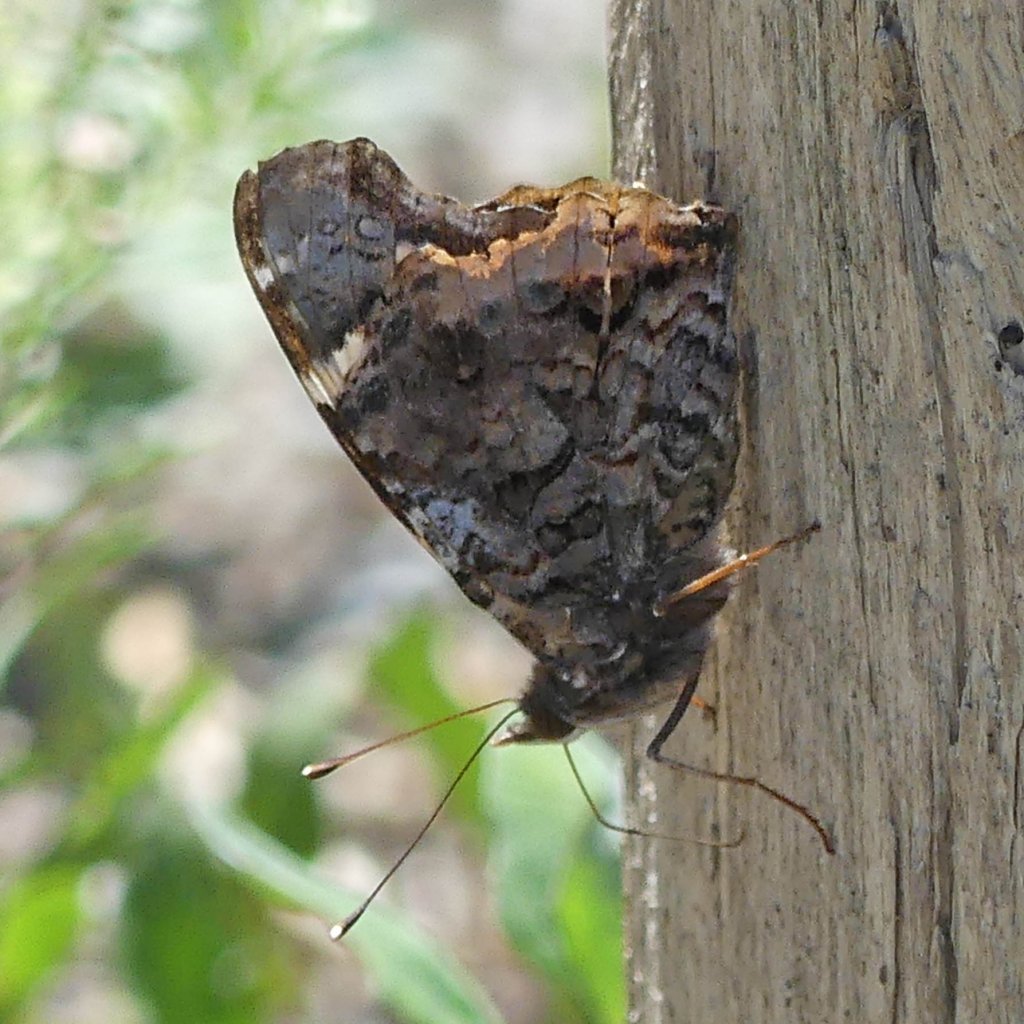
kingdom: Animalia
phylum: Arthropoda
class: Insecta
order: Lepidoptera
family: Nymphalidae
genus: Vanessa
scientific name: Vanessa atalanta
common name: Red Admiral
